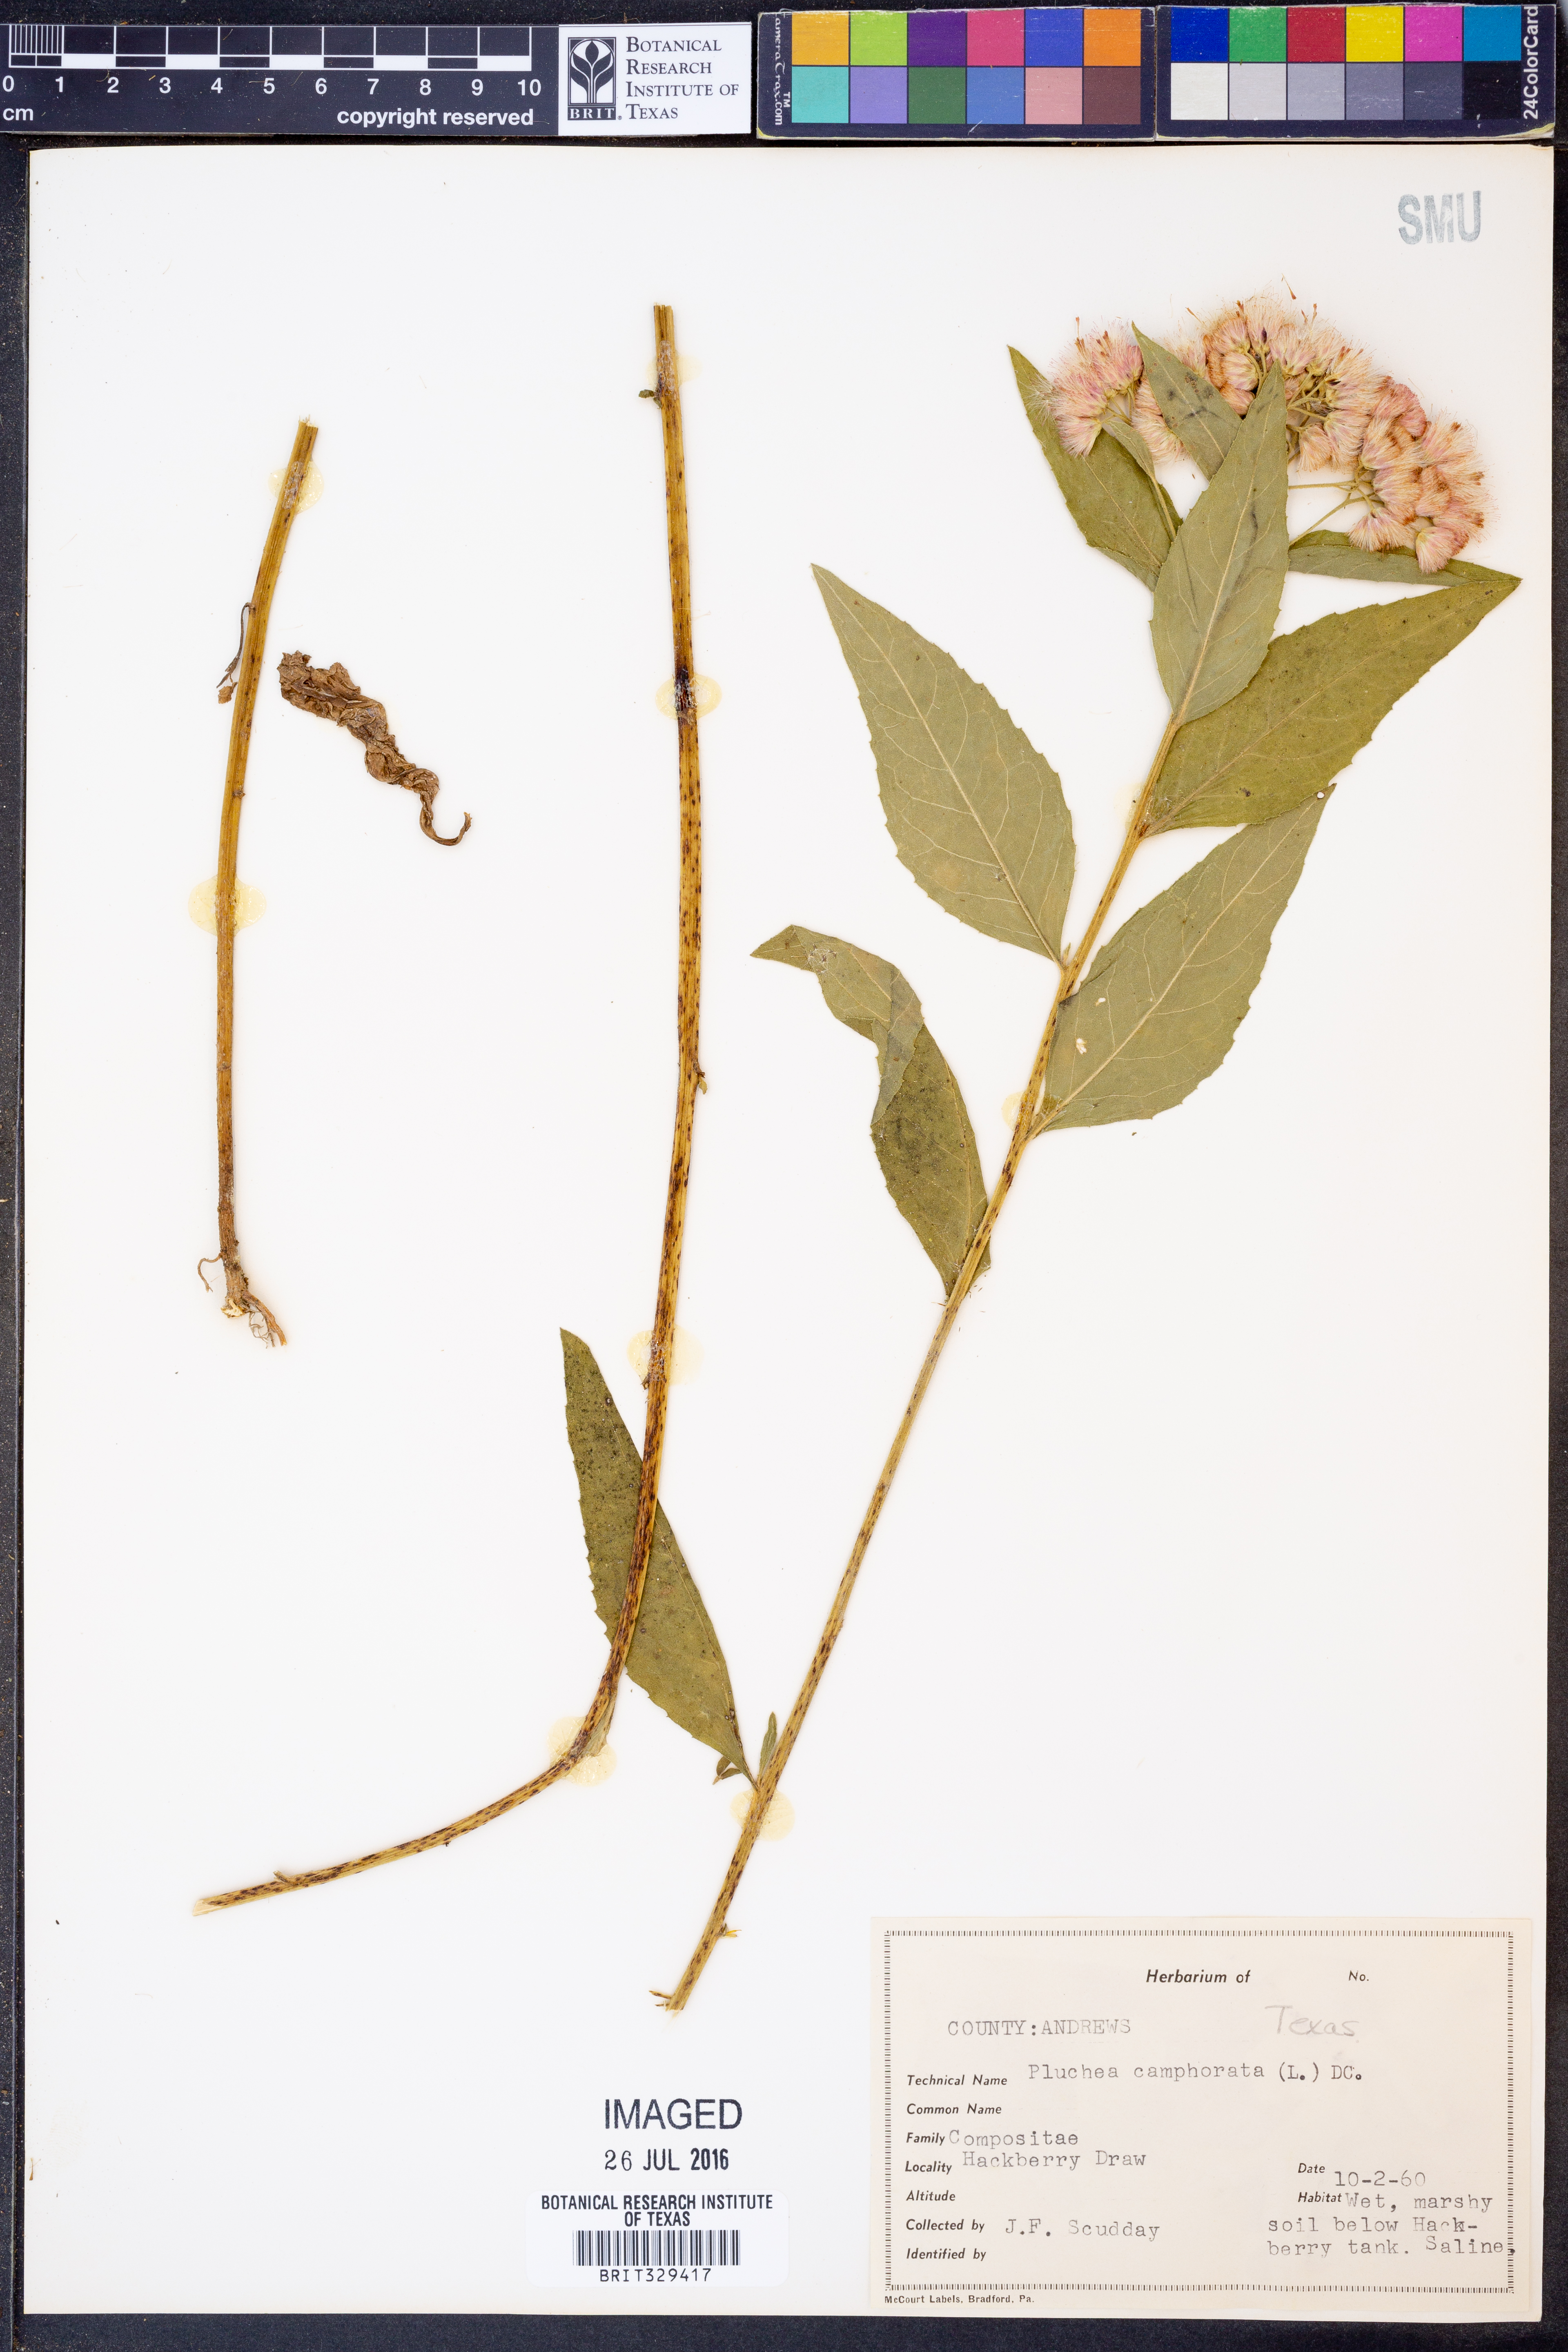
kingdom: Plantae
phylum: Tracheophyta
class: Magnoliopsida
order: Asterales
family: Asteraceae
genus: Pluchea
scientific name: Pluchea camphorata
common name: Camphor pluchea
